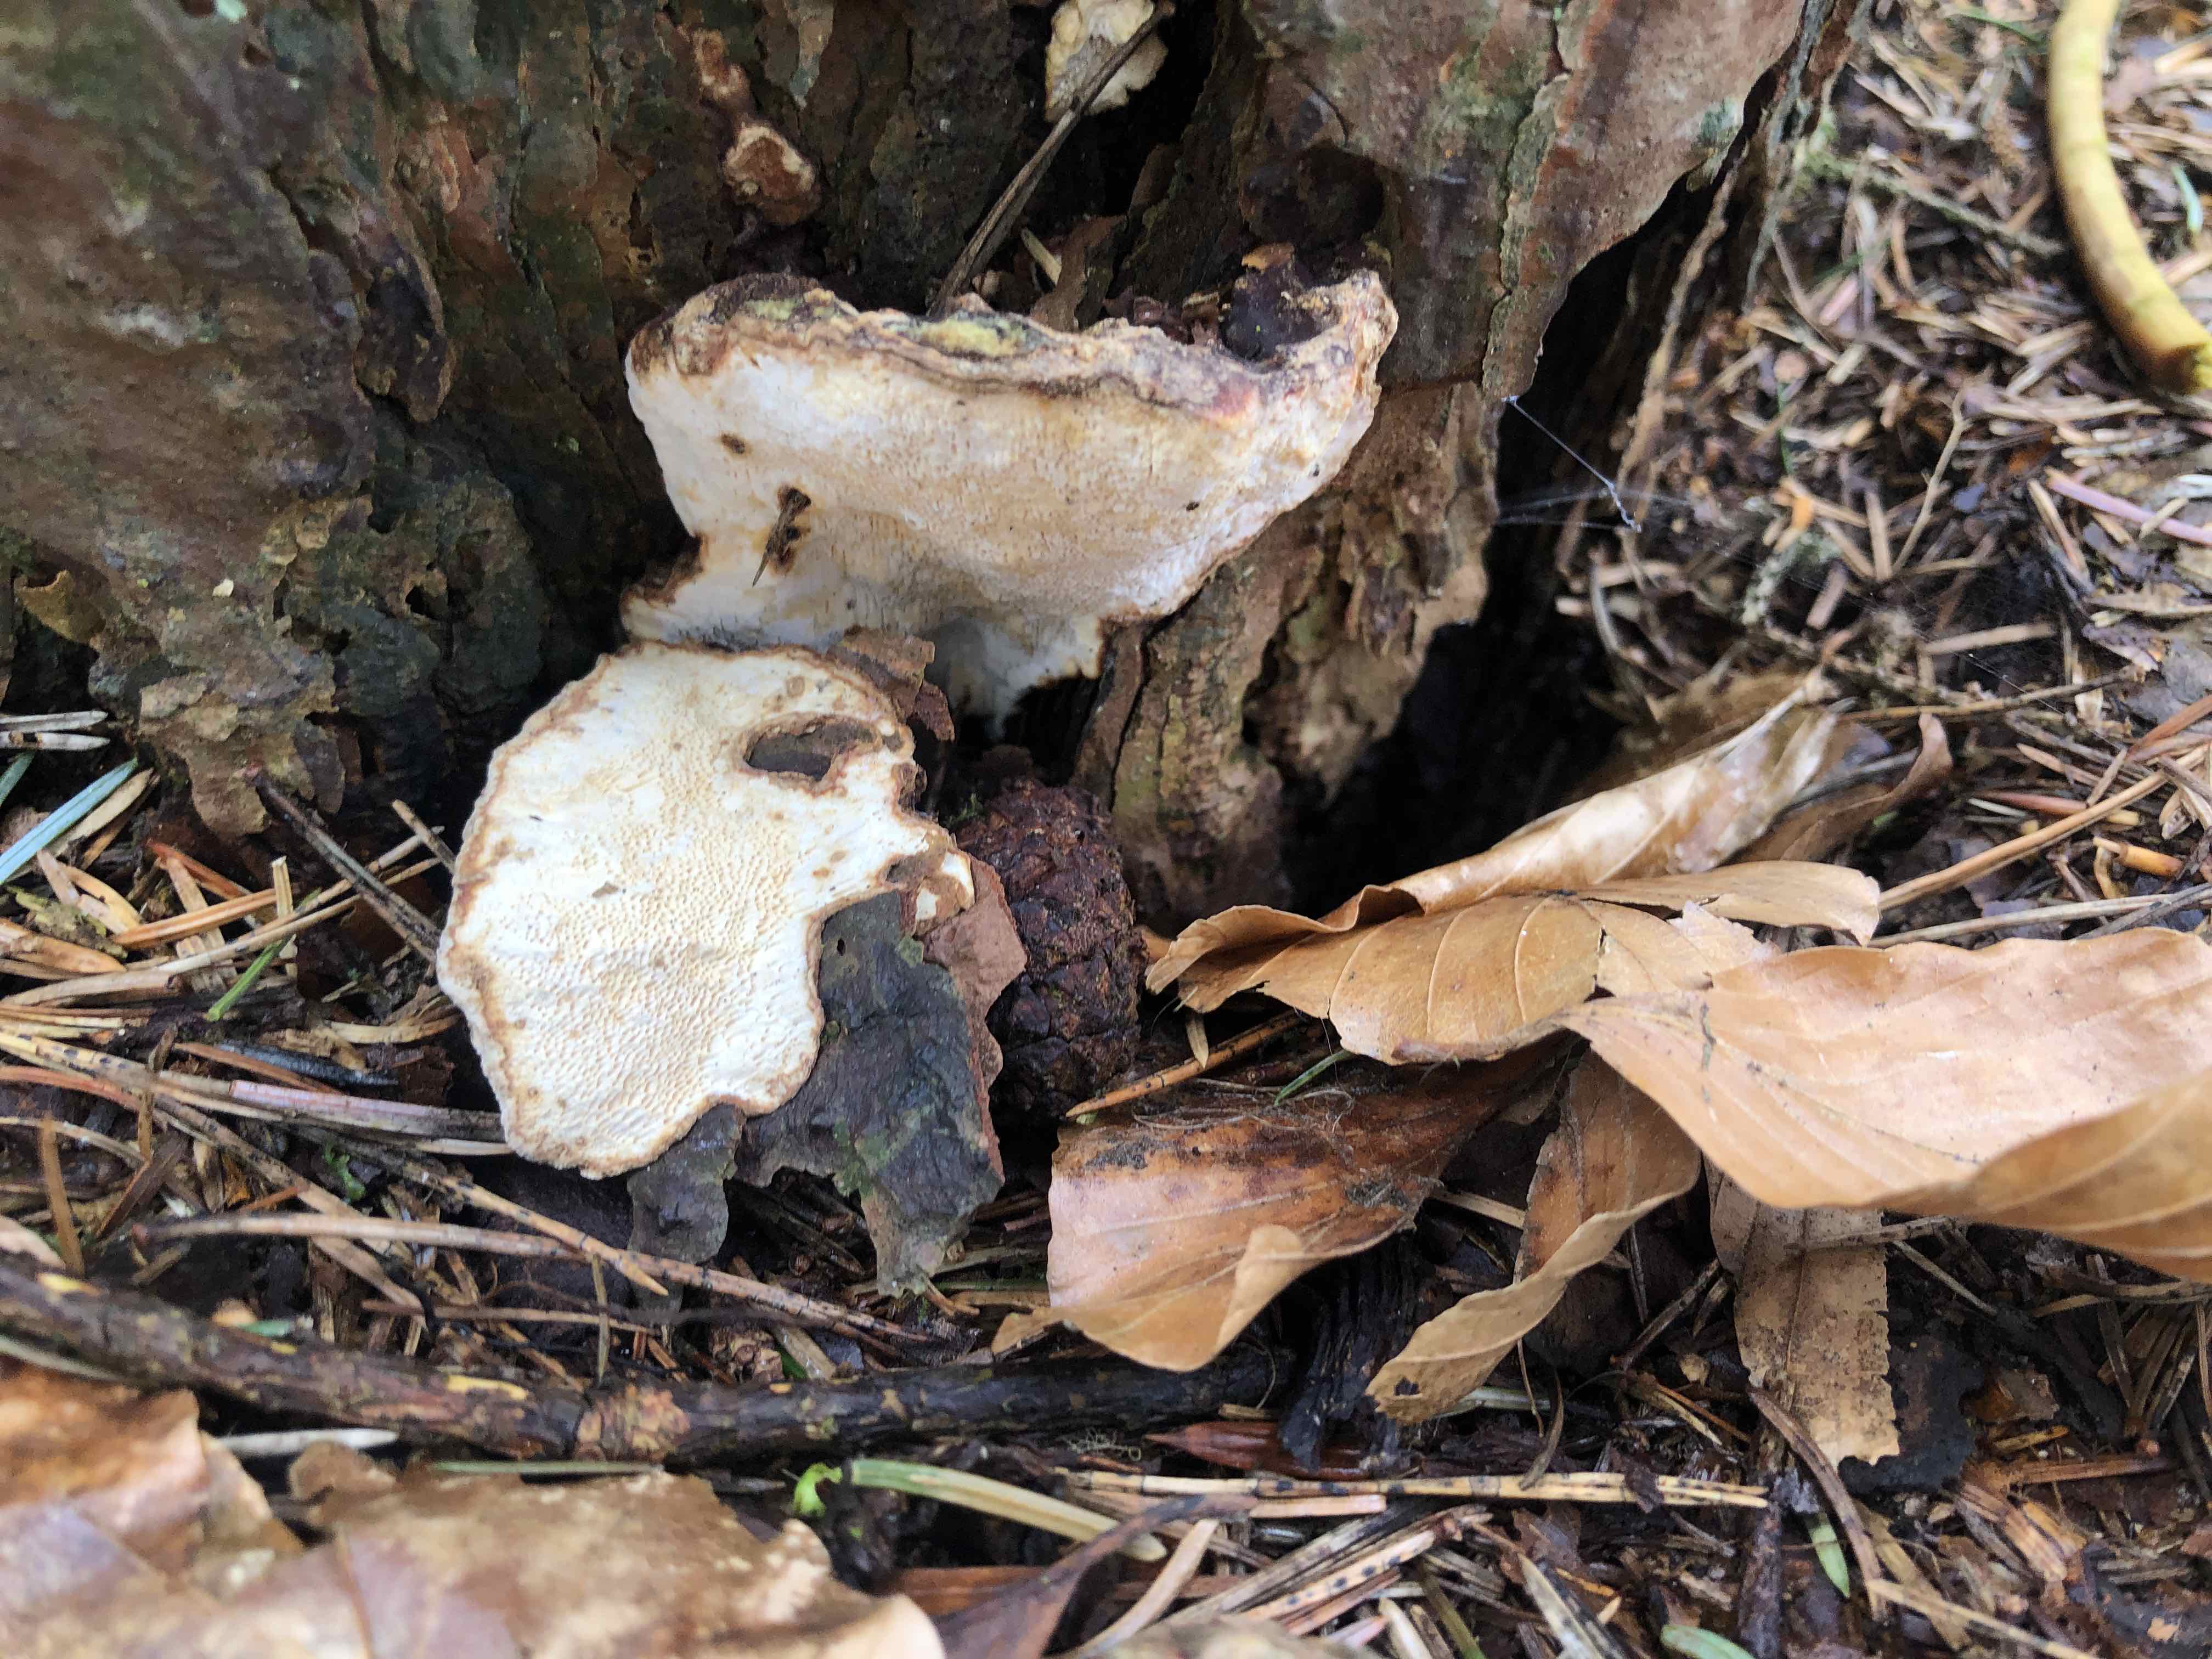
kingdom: Fungi
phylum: Basidiomycota
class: Agaricomycetes
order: Russulales
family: Bondarzewiaceae
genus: Heterobasidion
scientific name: Heterobasidion annosum
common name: almindelig rodfordærver
